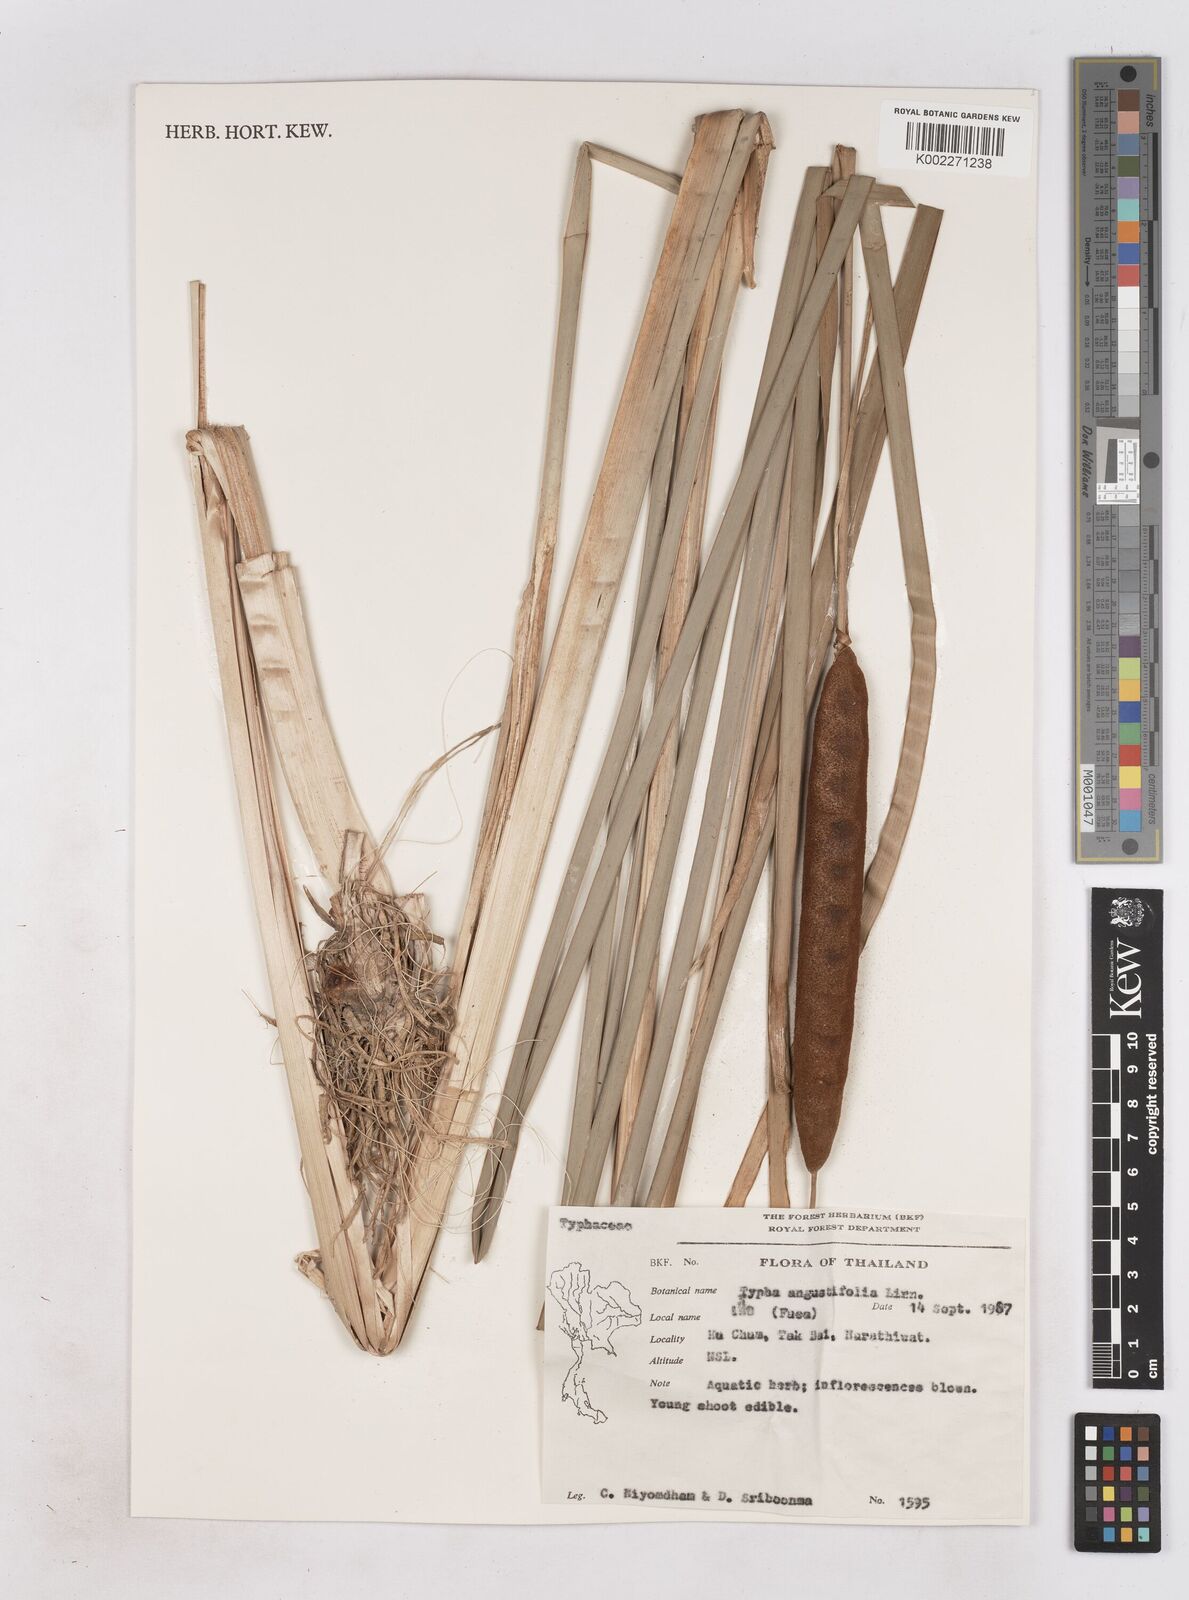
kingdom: Plantae
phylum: Tracheophyta
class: Liliopsida
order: Poales
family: Typhaceae
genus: Typha
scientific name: Typha angustifolia
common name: Lesser bulrush
